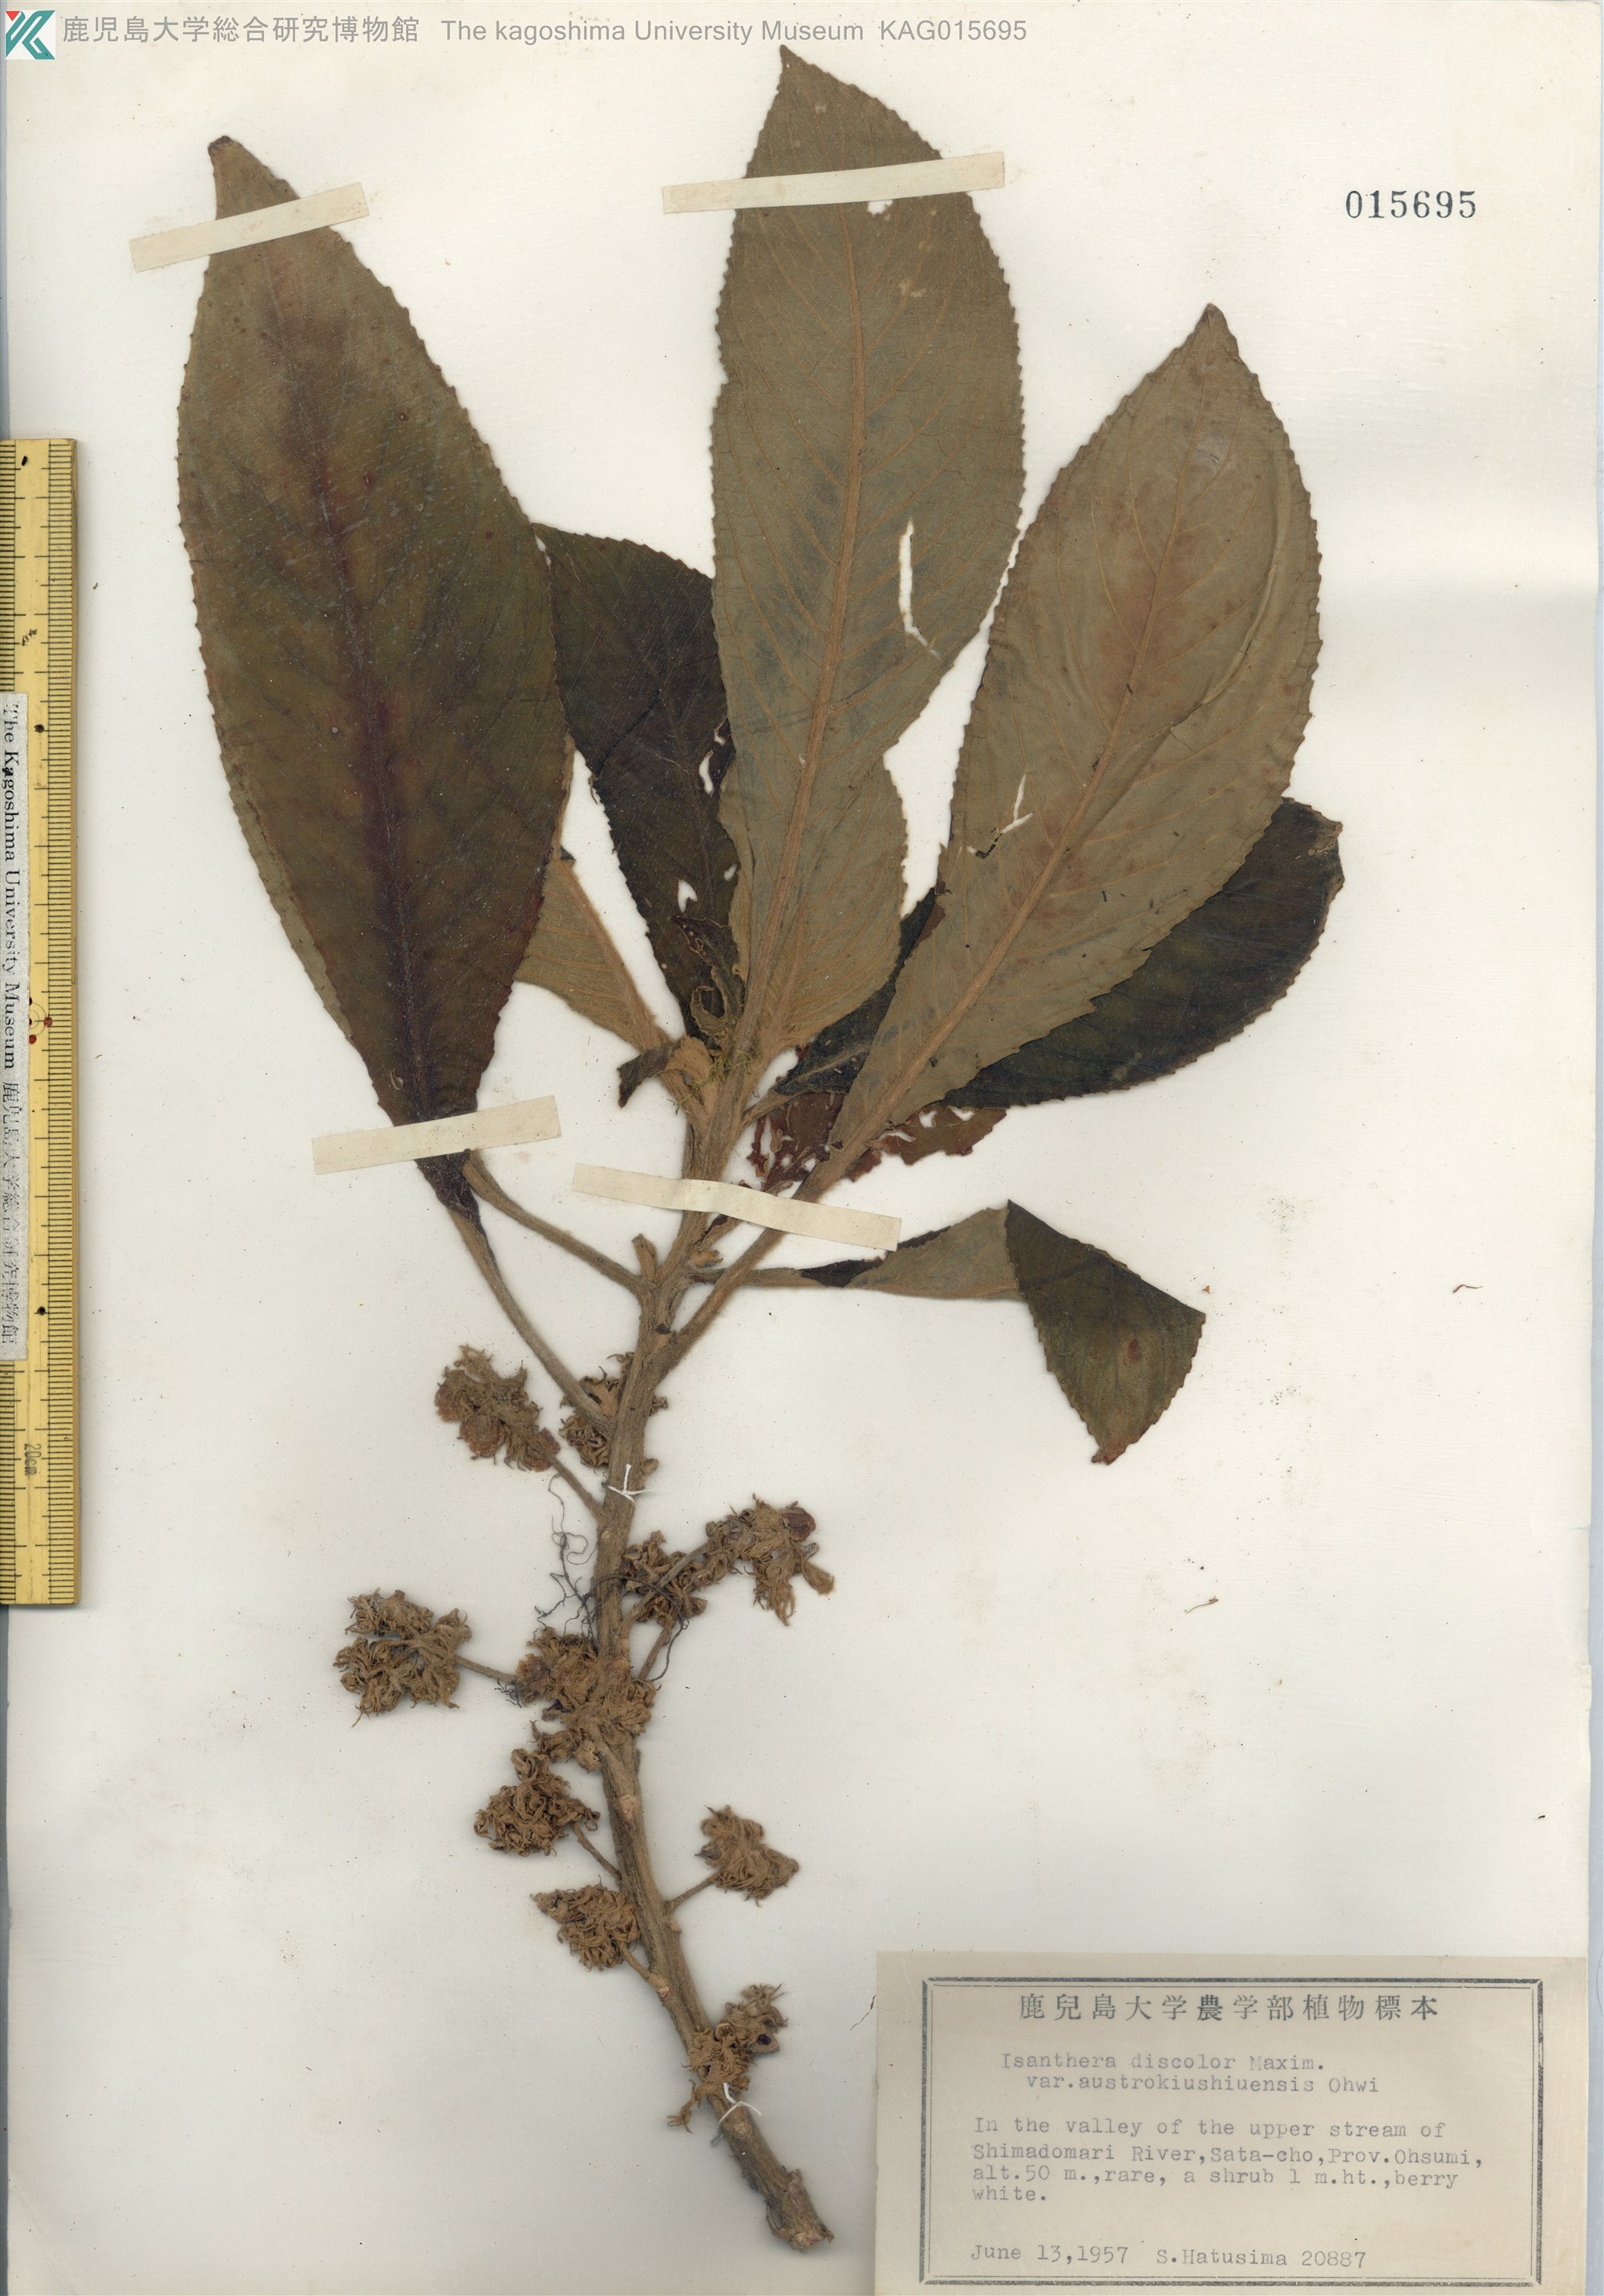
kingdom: Plantae
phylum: Tracheophyta
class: Magnoliopsida
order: Lamiales
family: Gesneriaceae
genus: Rhynchotechum
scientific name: Rhynchotechum discolor
